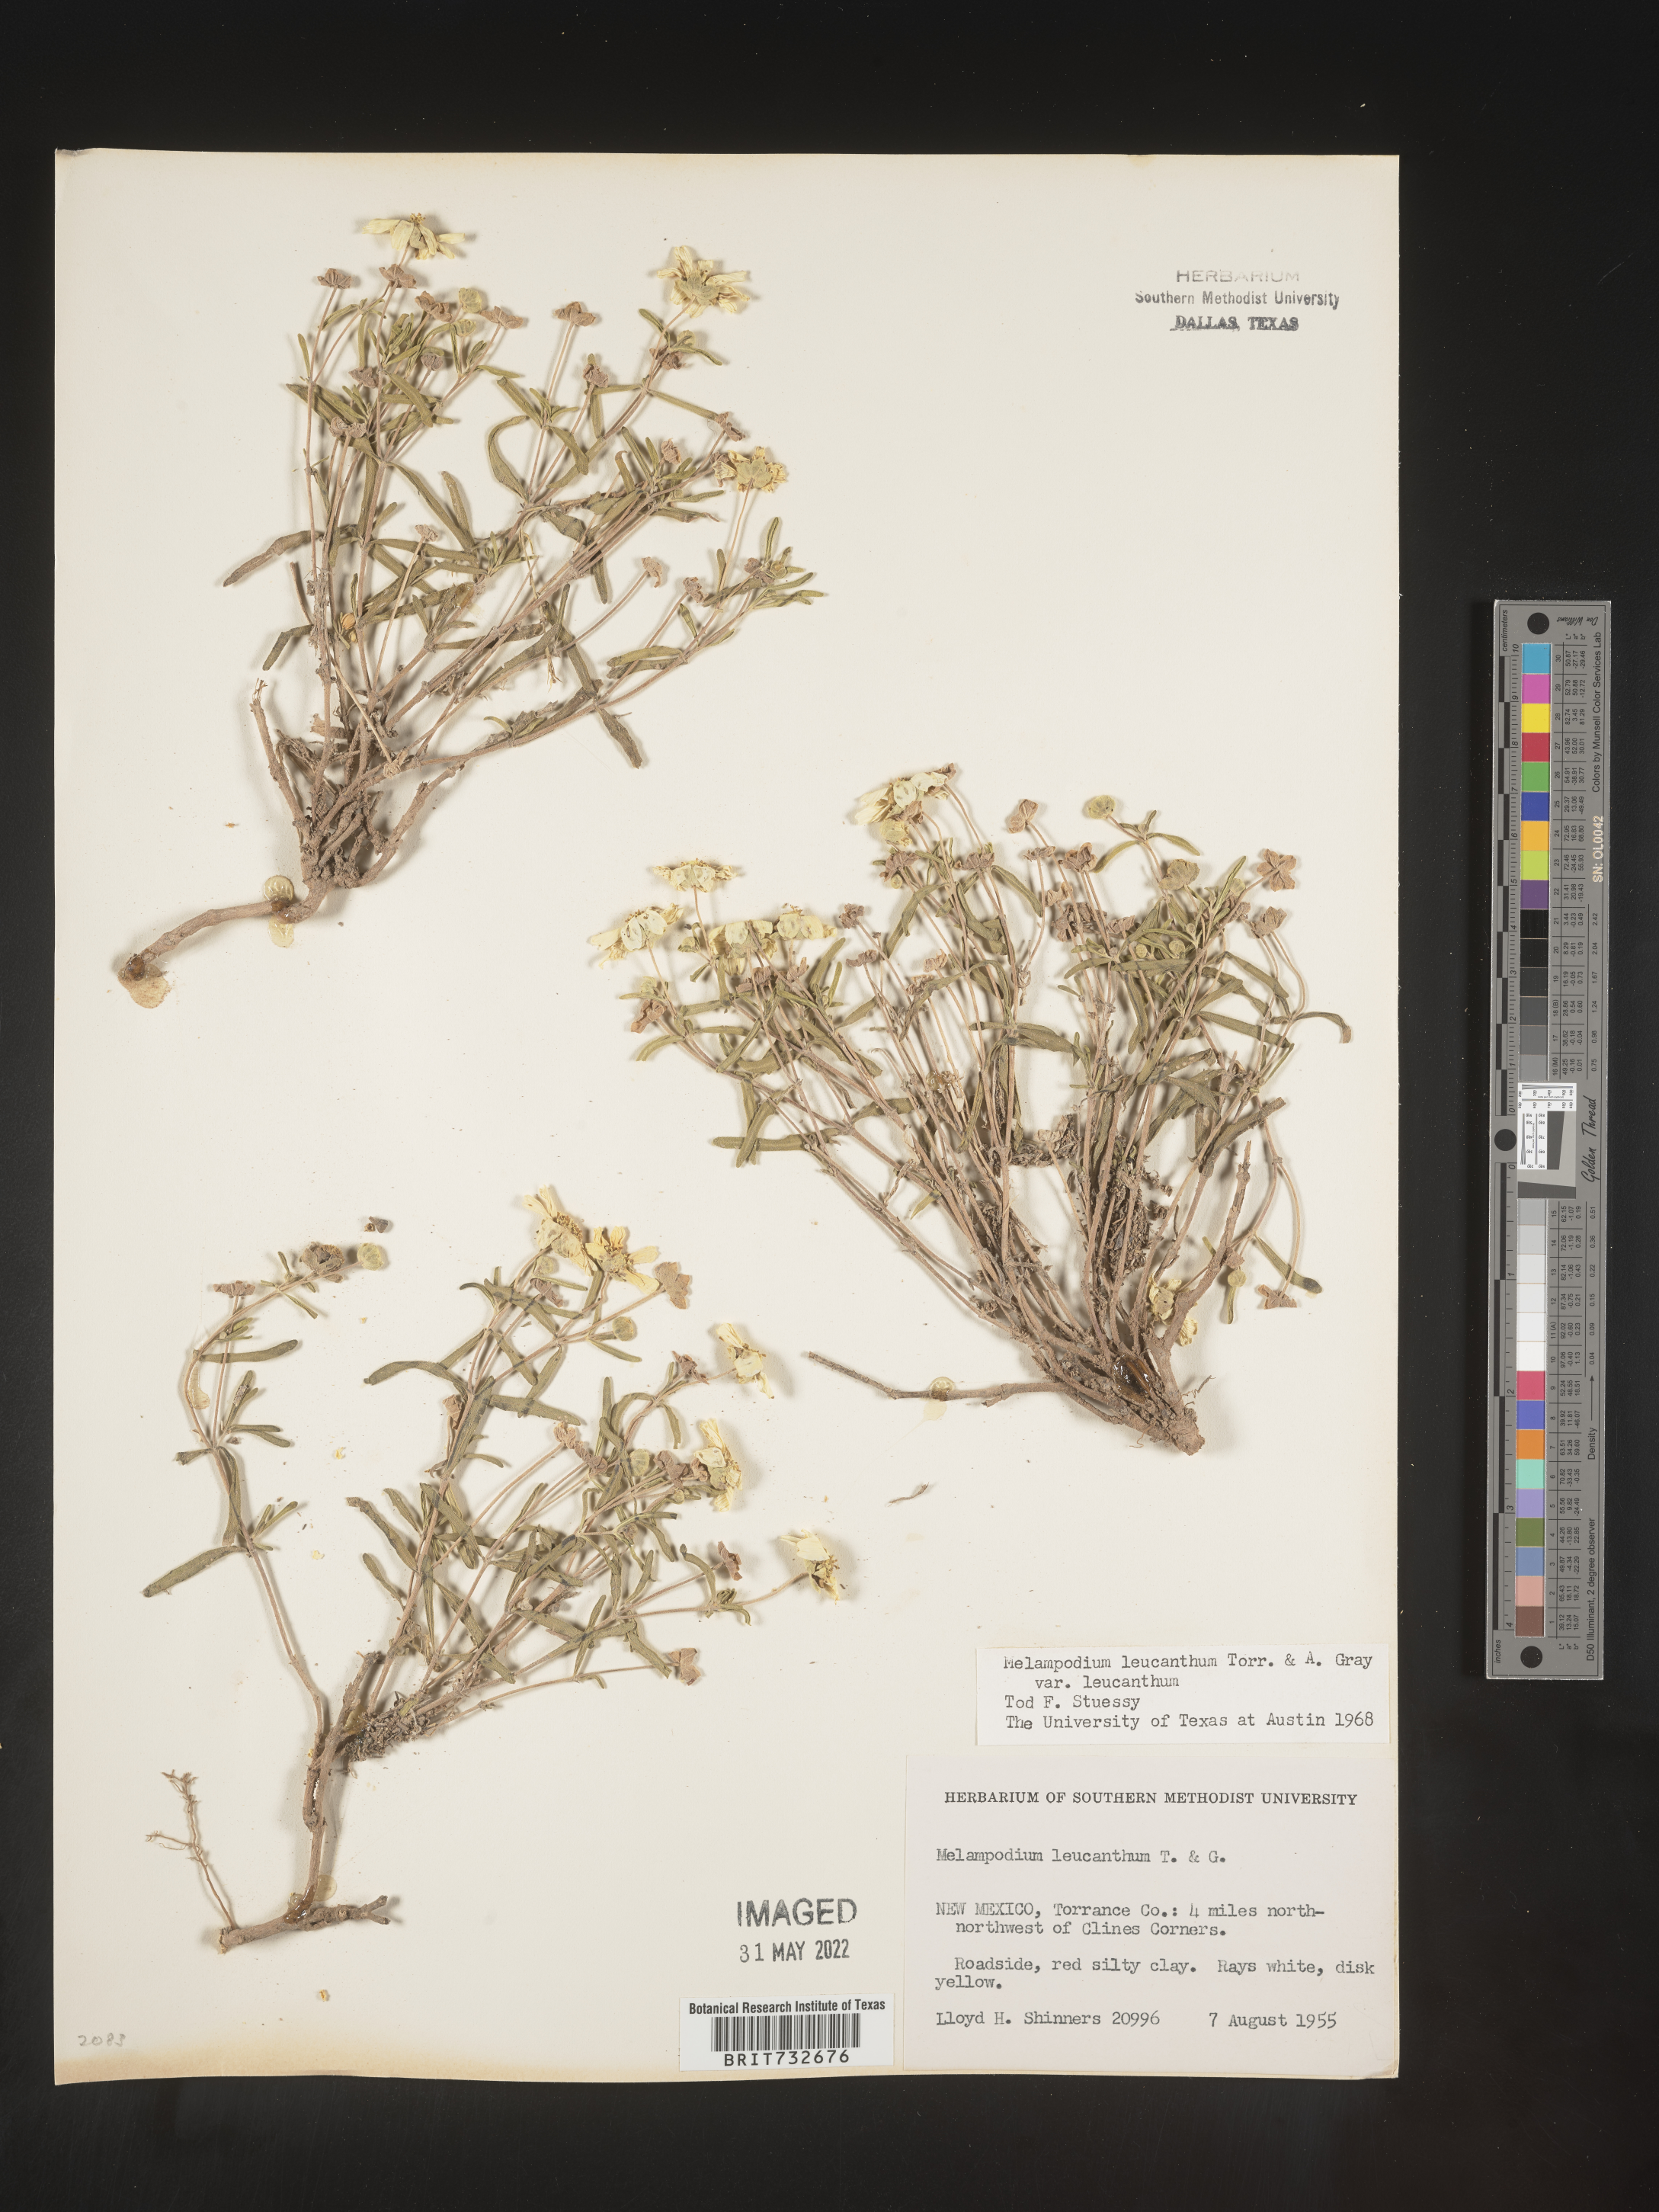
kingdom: Plantae
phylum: Tracheophyta
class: Magnoliopsida
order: Asterales
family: Asteraceae
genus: Melampodium
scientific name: Melampodium leucanthum
